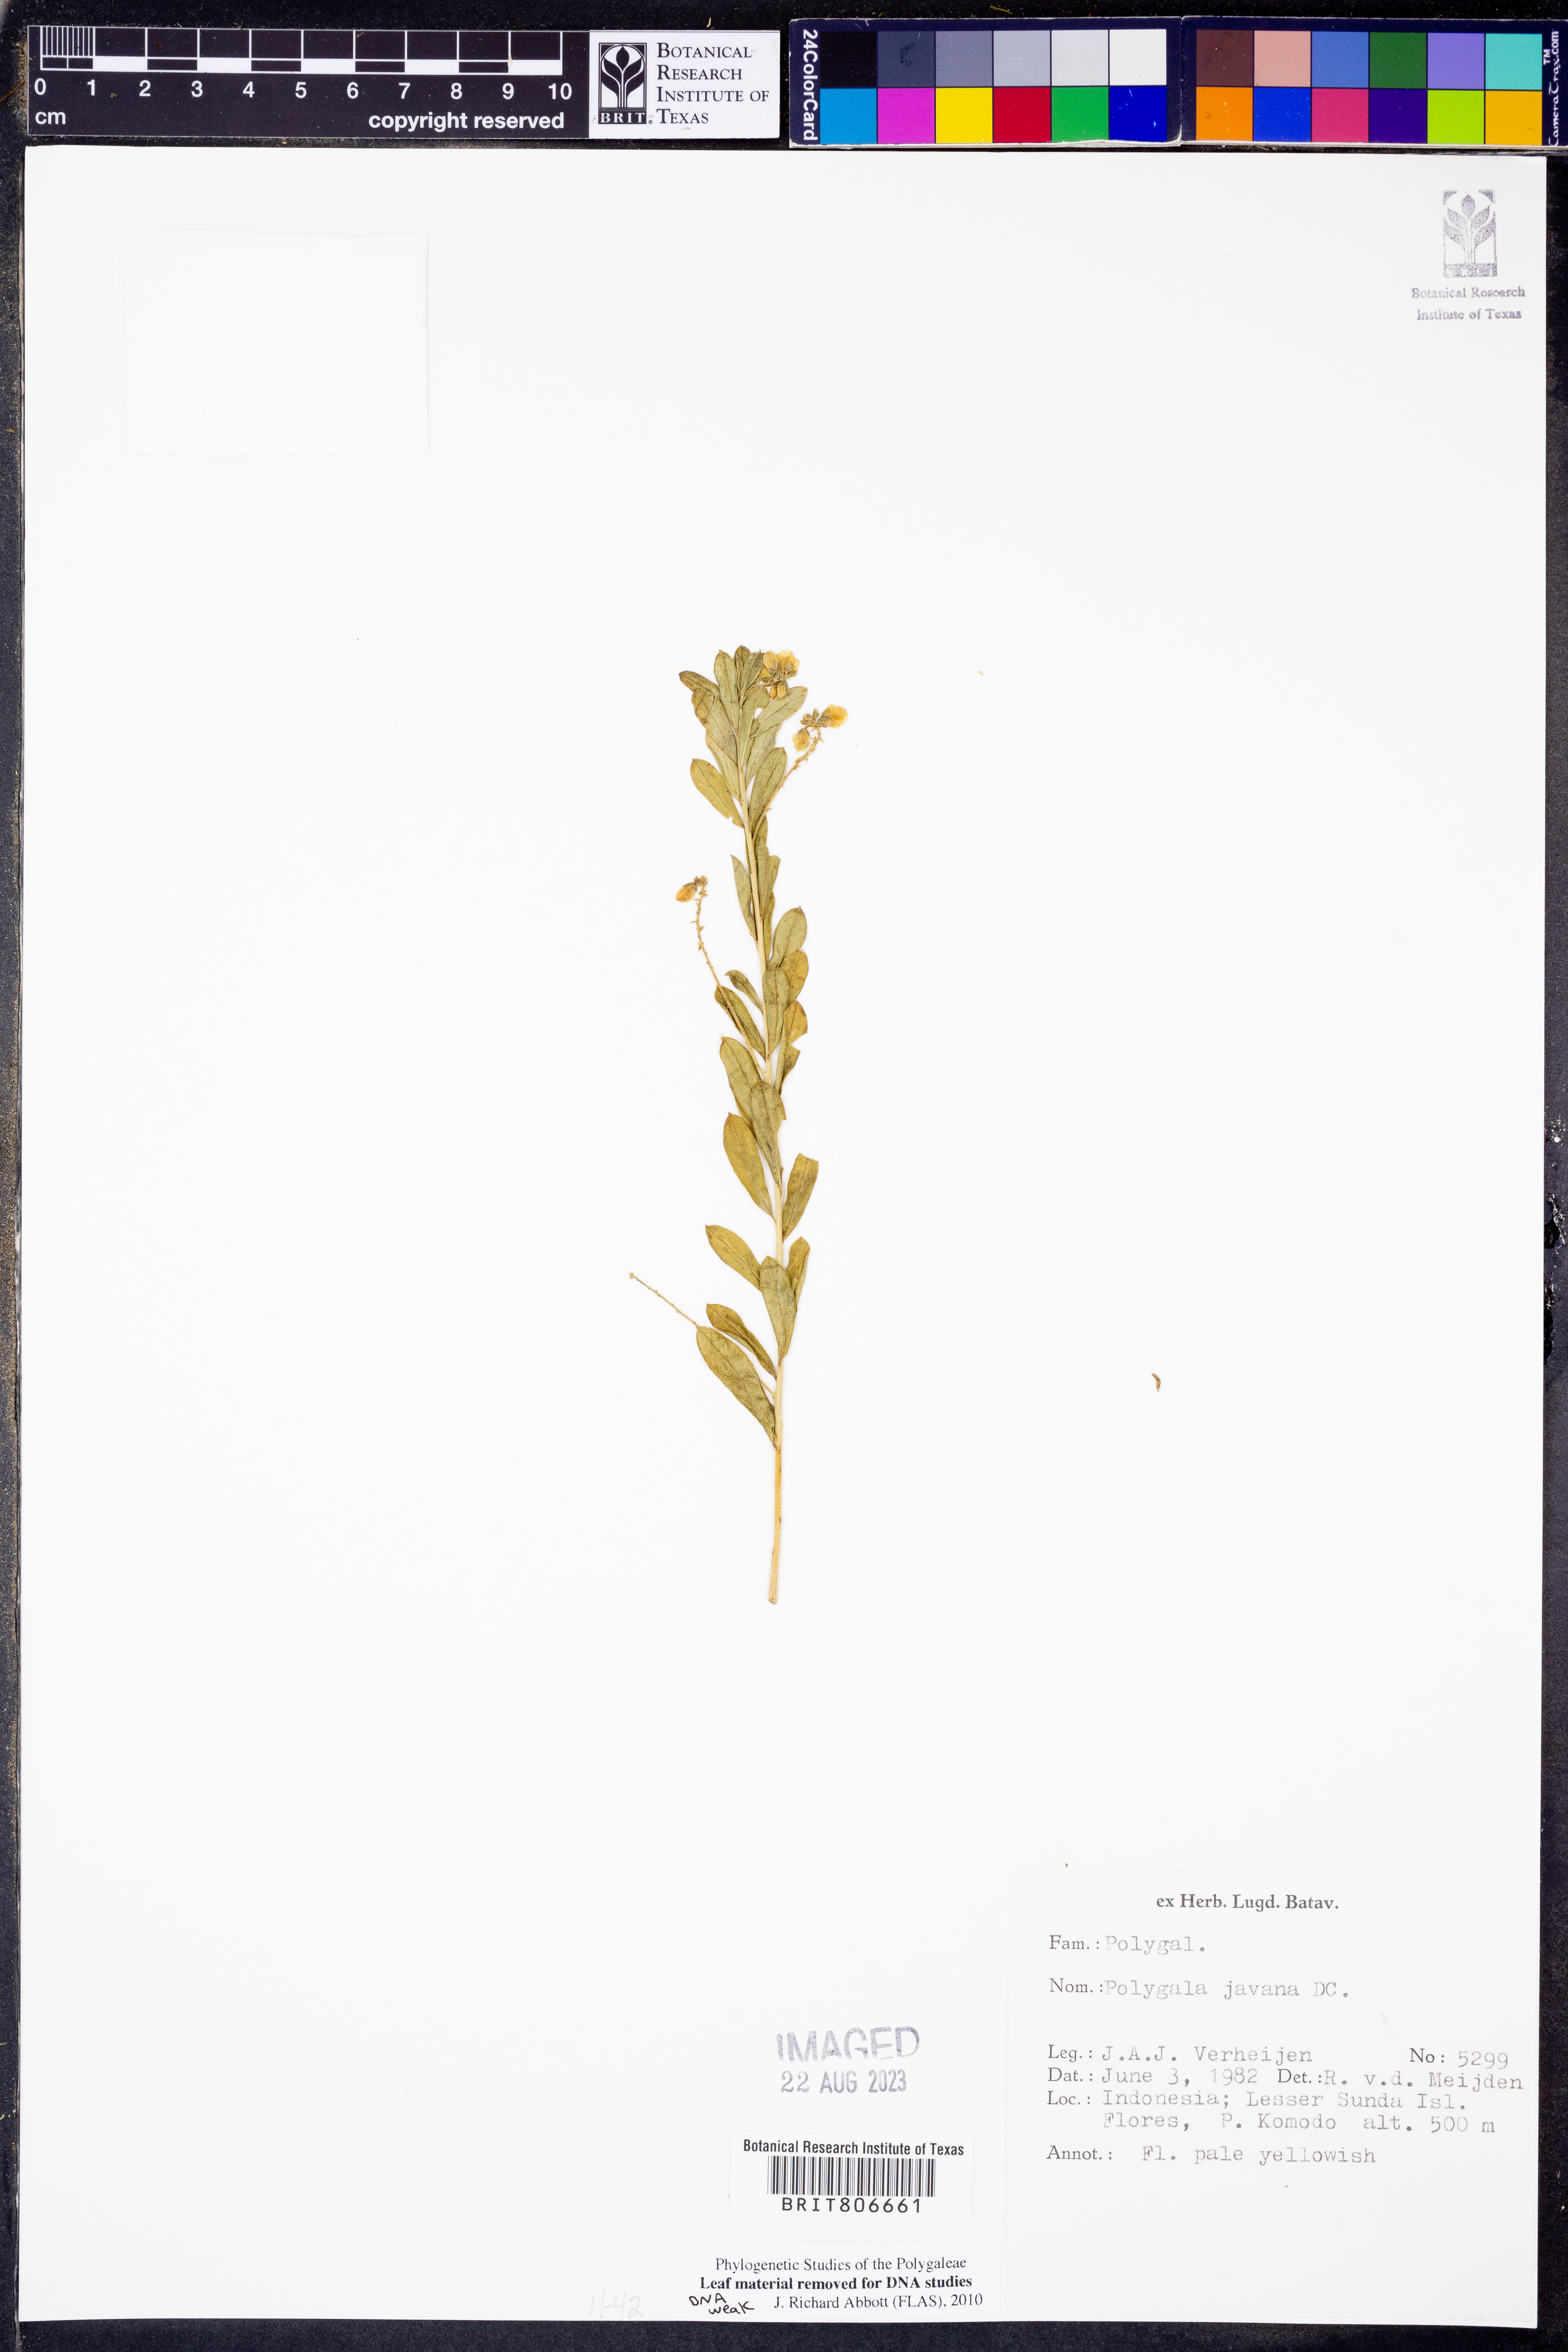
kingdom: Plantae
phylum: Tracheophyta
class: Magnoliopsida
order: Fabales
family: Polygalaceae
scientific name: Polygalaceae
